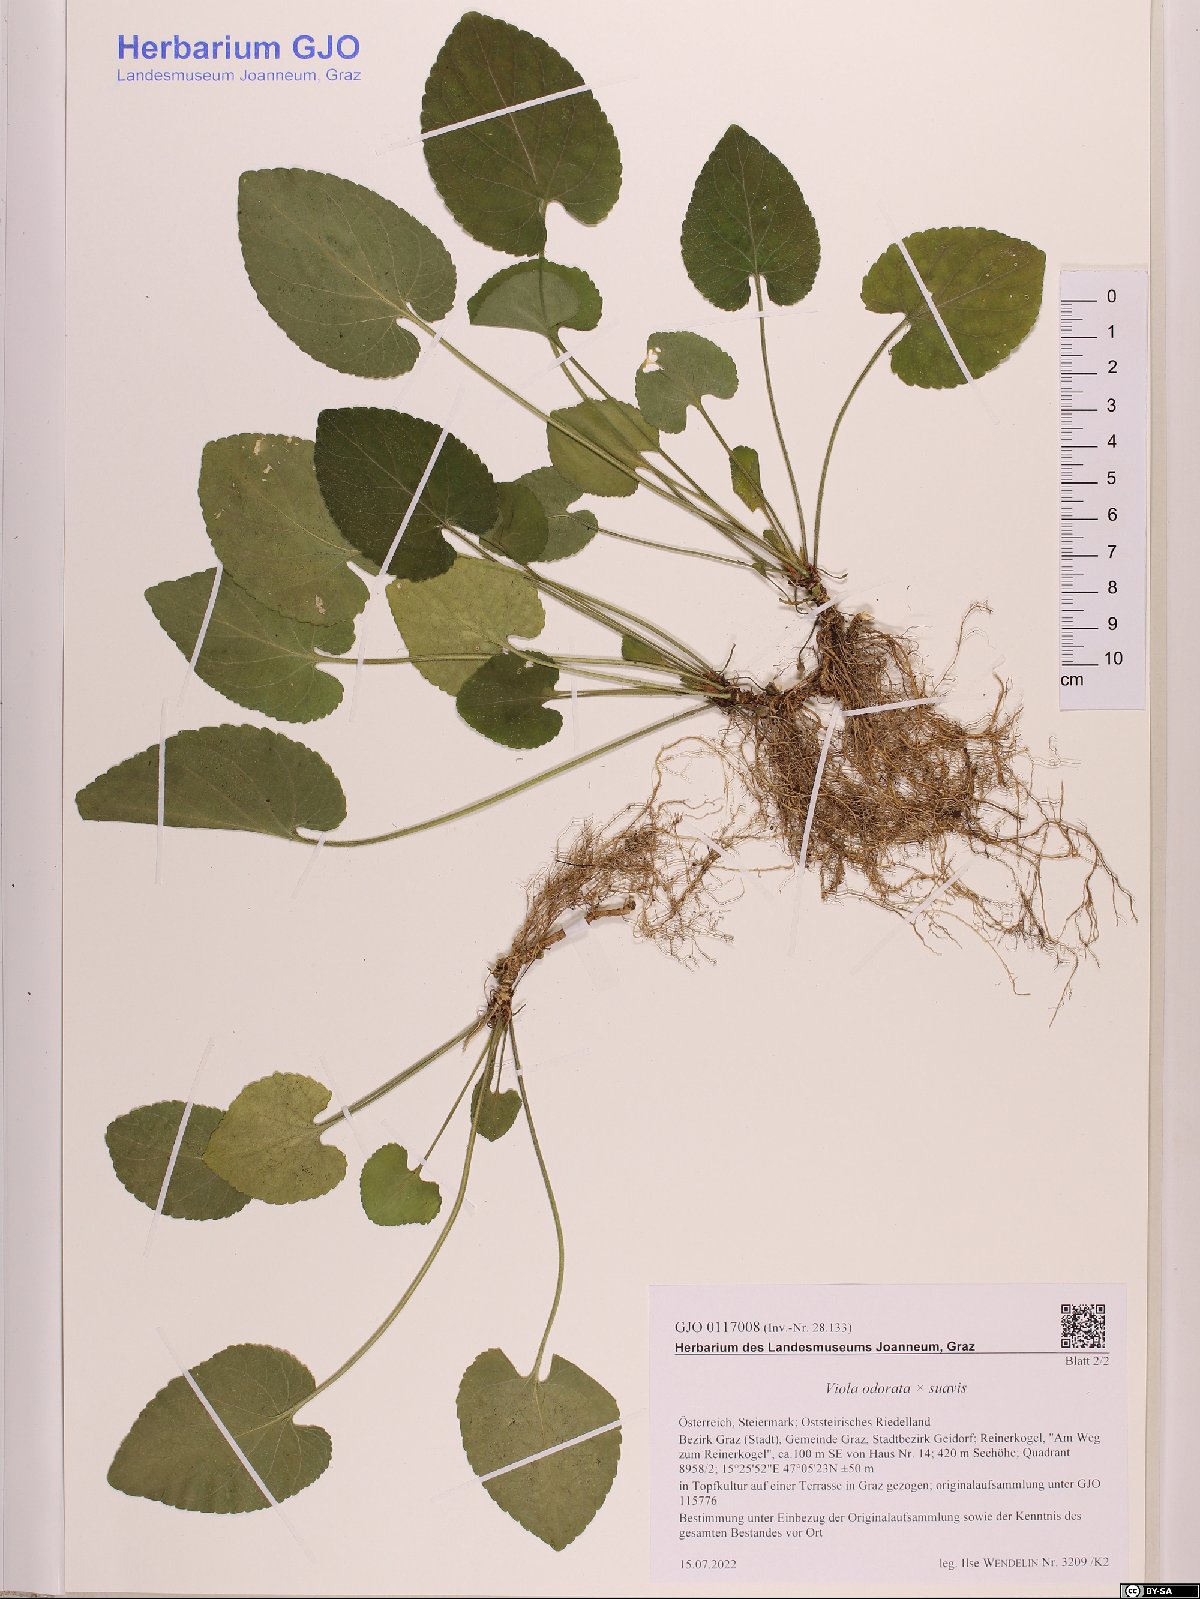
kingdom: Plantae
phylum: Tracheophyta
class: Magnoliopsida
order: Malpighiales
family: Violaceae
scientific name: Violaceae
